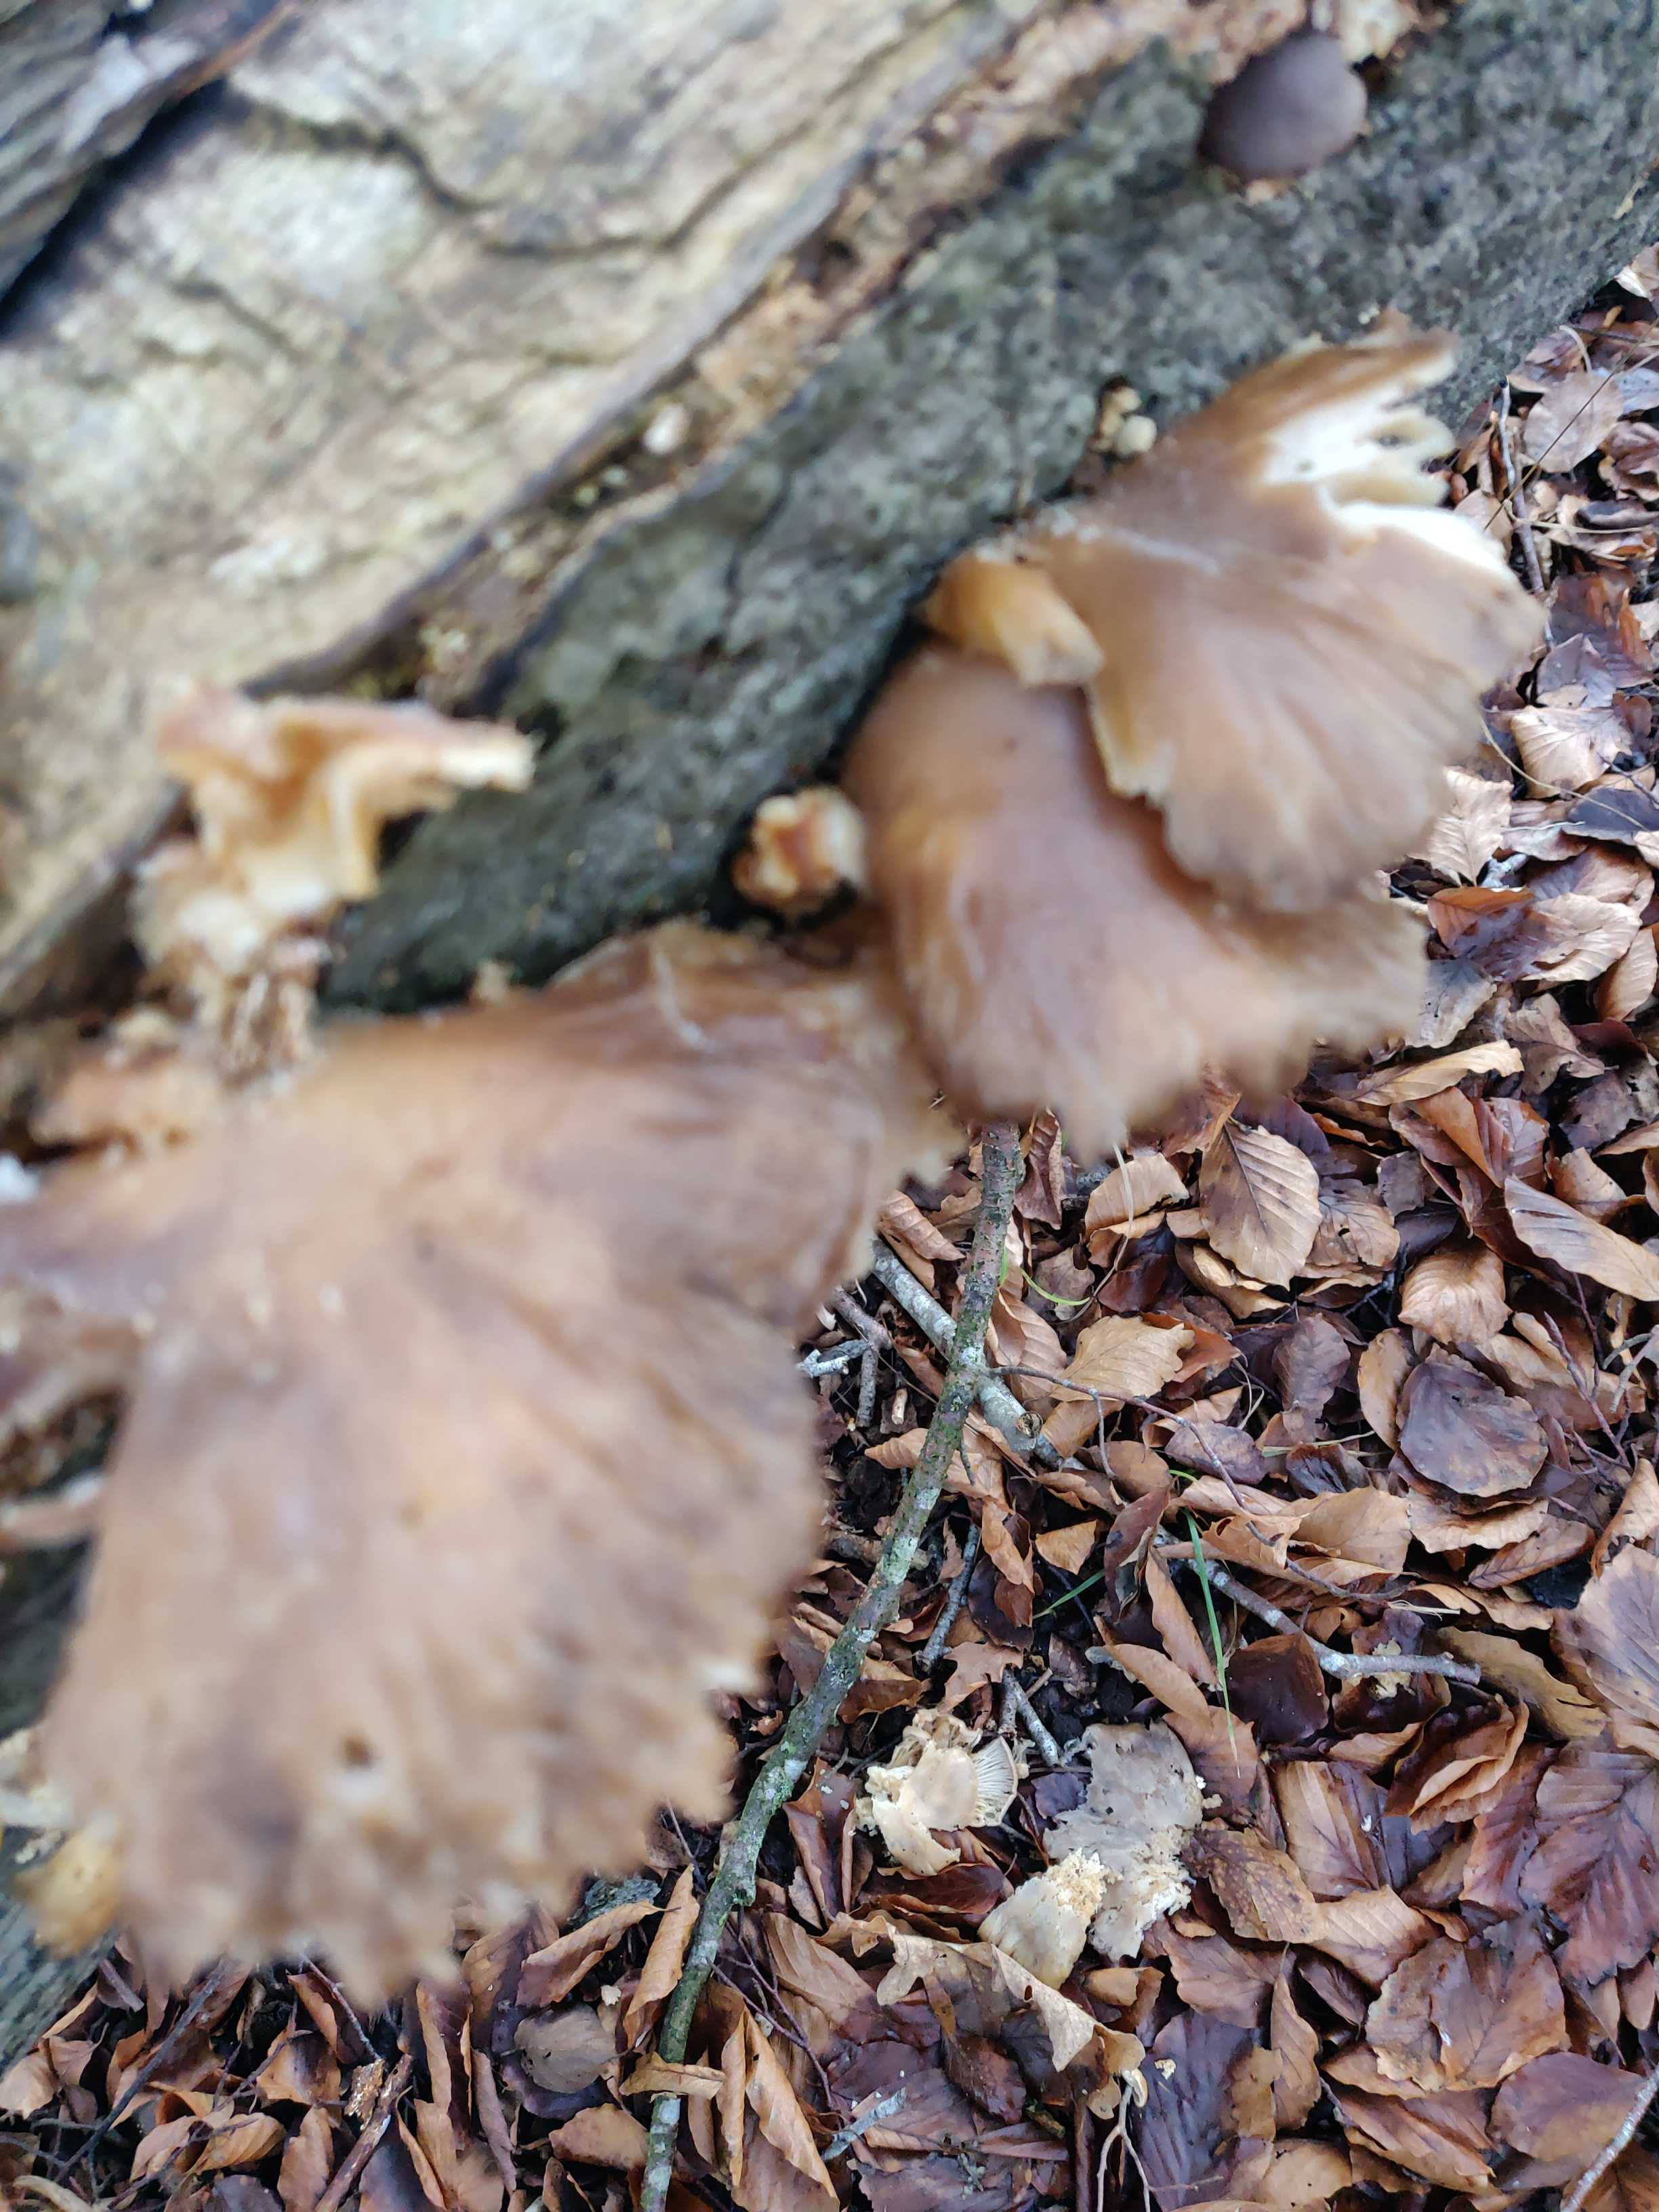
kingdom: Fungi
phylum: Basidiomycota
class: Agaricomycetes
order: Agaricales
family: Pleurotaceae
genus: Pleurotus
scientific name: Pleurotus ostreatus
